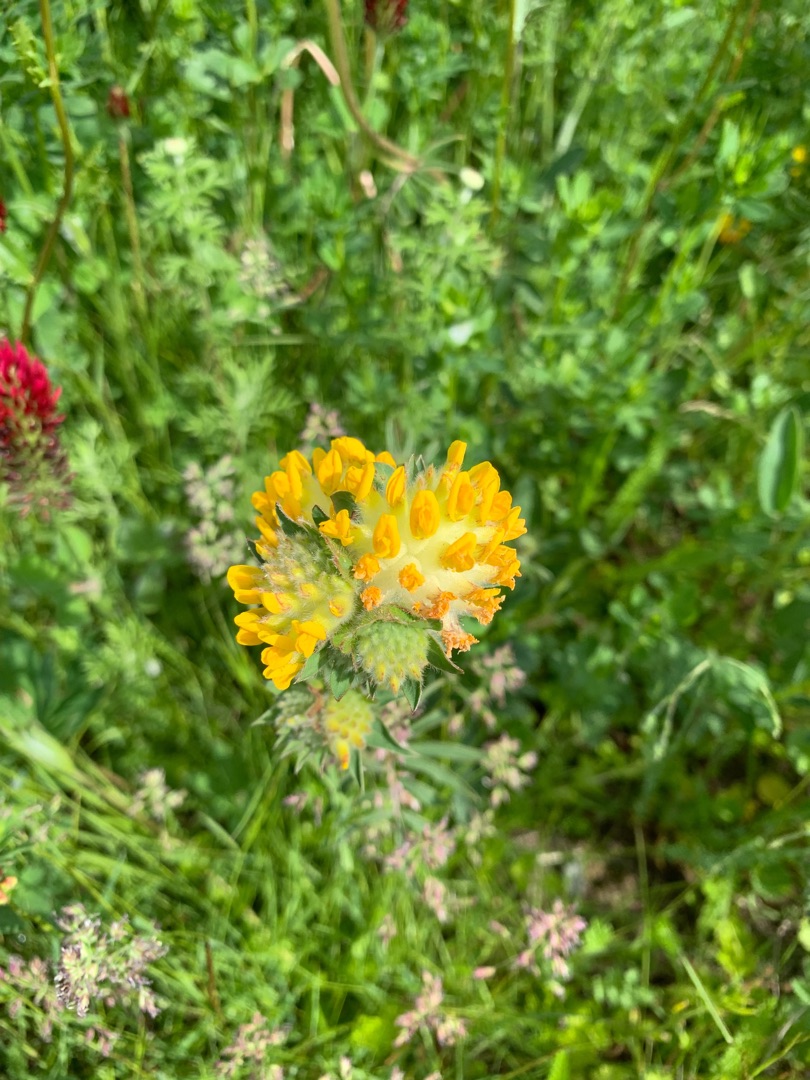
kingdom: Plantae
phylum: Tracheophyta
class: Magnoliopsida
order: Fabales
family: Fabaceae
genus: Anthyllis
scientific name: Anthyllis vulneraria
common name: Rundbælg
